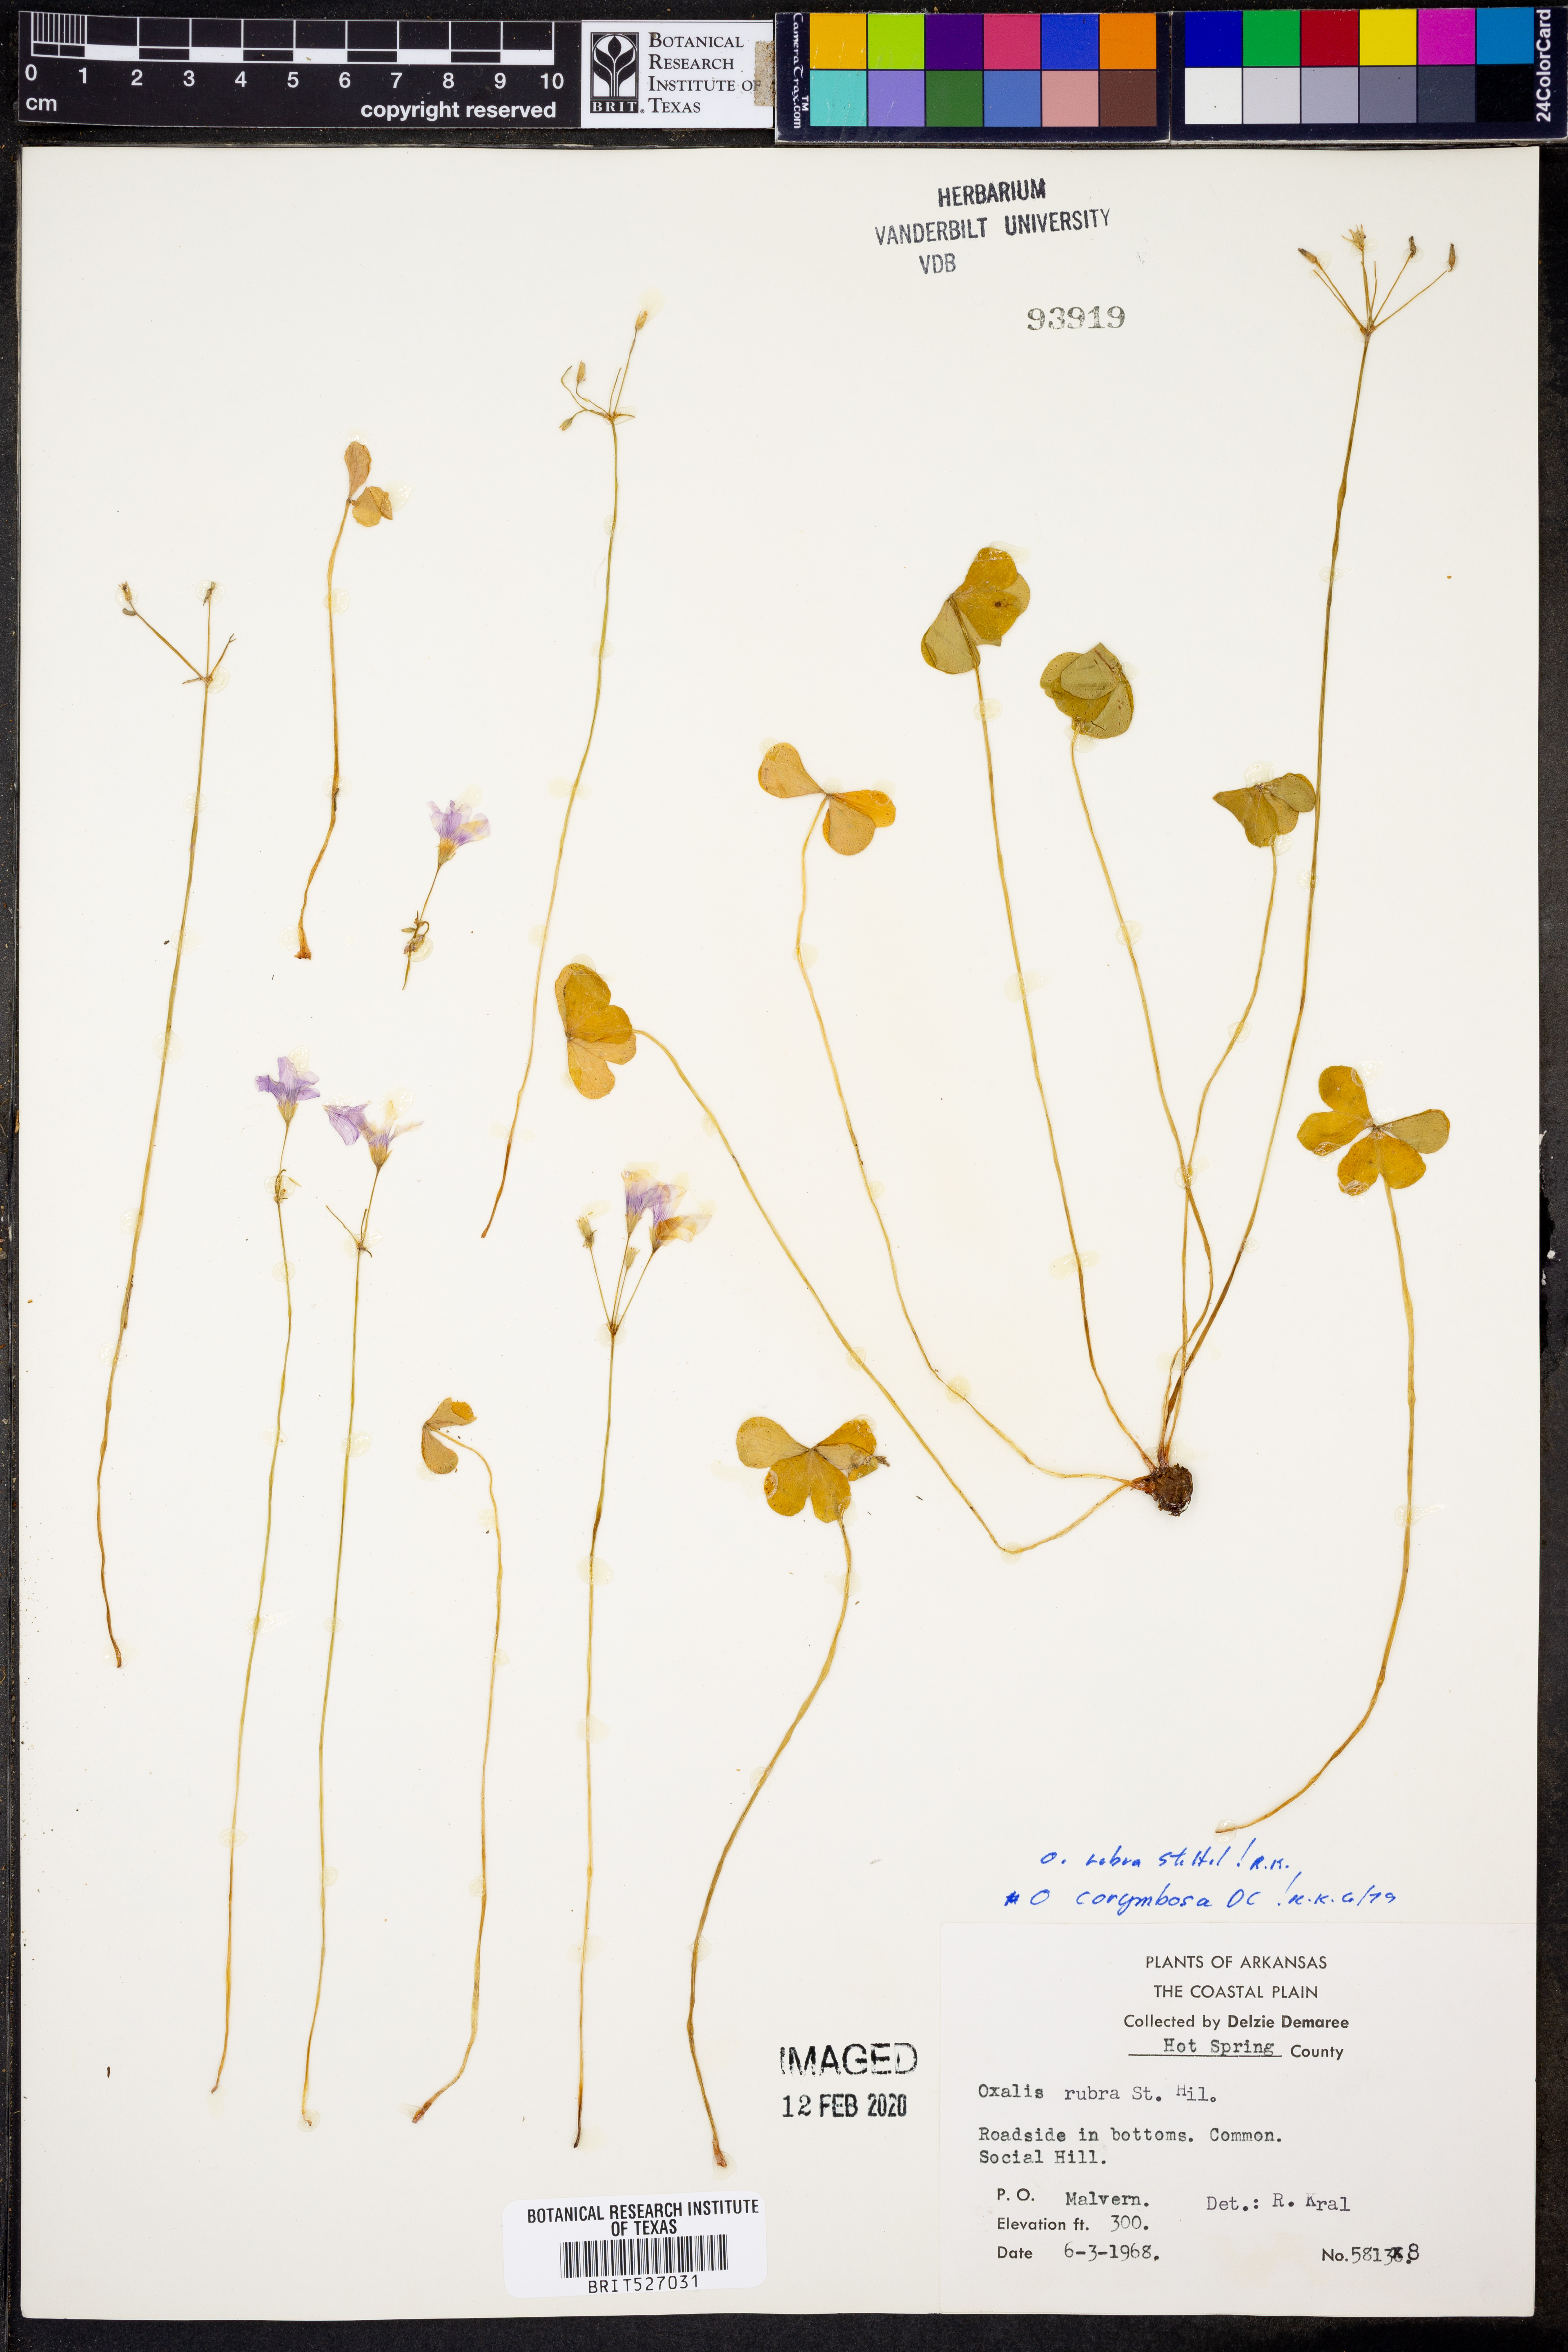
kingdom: Plantae
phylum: Tracheophyta
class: Magnoliopsida
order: Oxalidales
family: Oxalidaceae
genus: Oxalis
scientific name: Oxalis articulata
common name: Pink-sorrel
